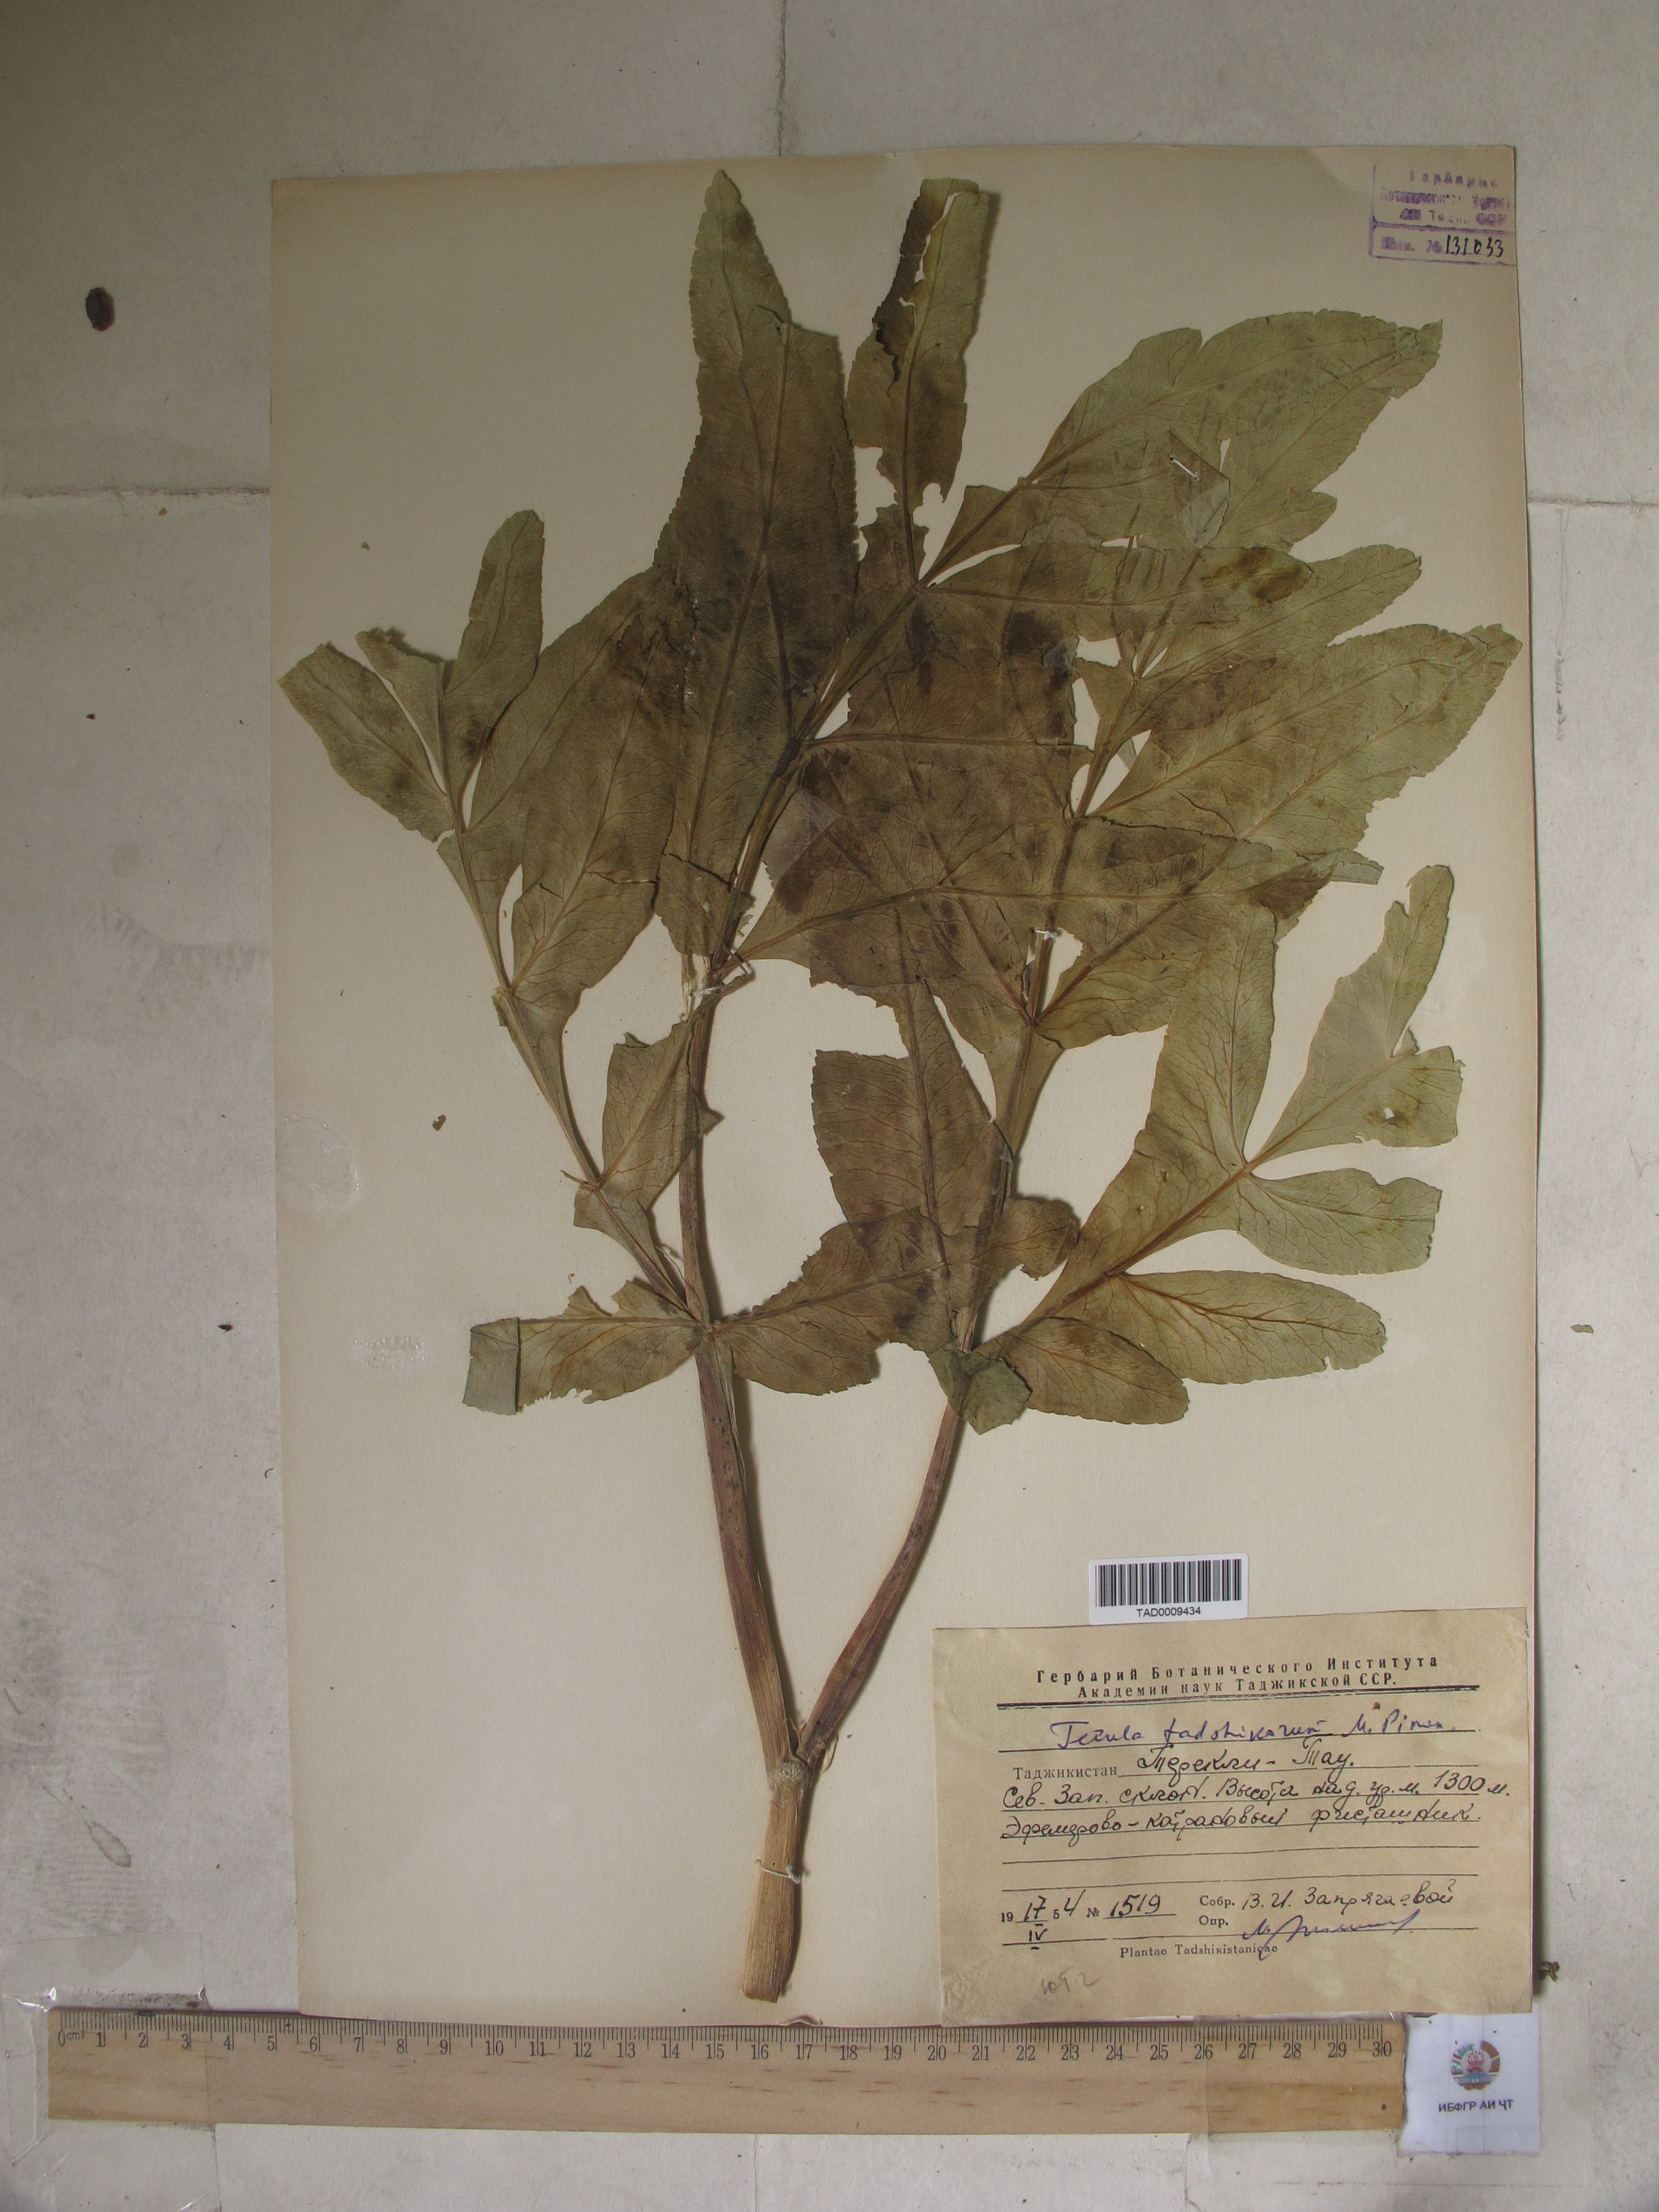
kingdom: Plantae
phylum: Tracheophyta
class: Magnoliopsida
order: Apiales
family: Apiaceae
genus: Ferula
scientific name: Ferula tadshikorum
